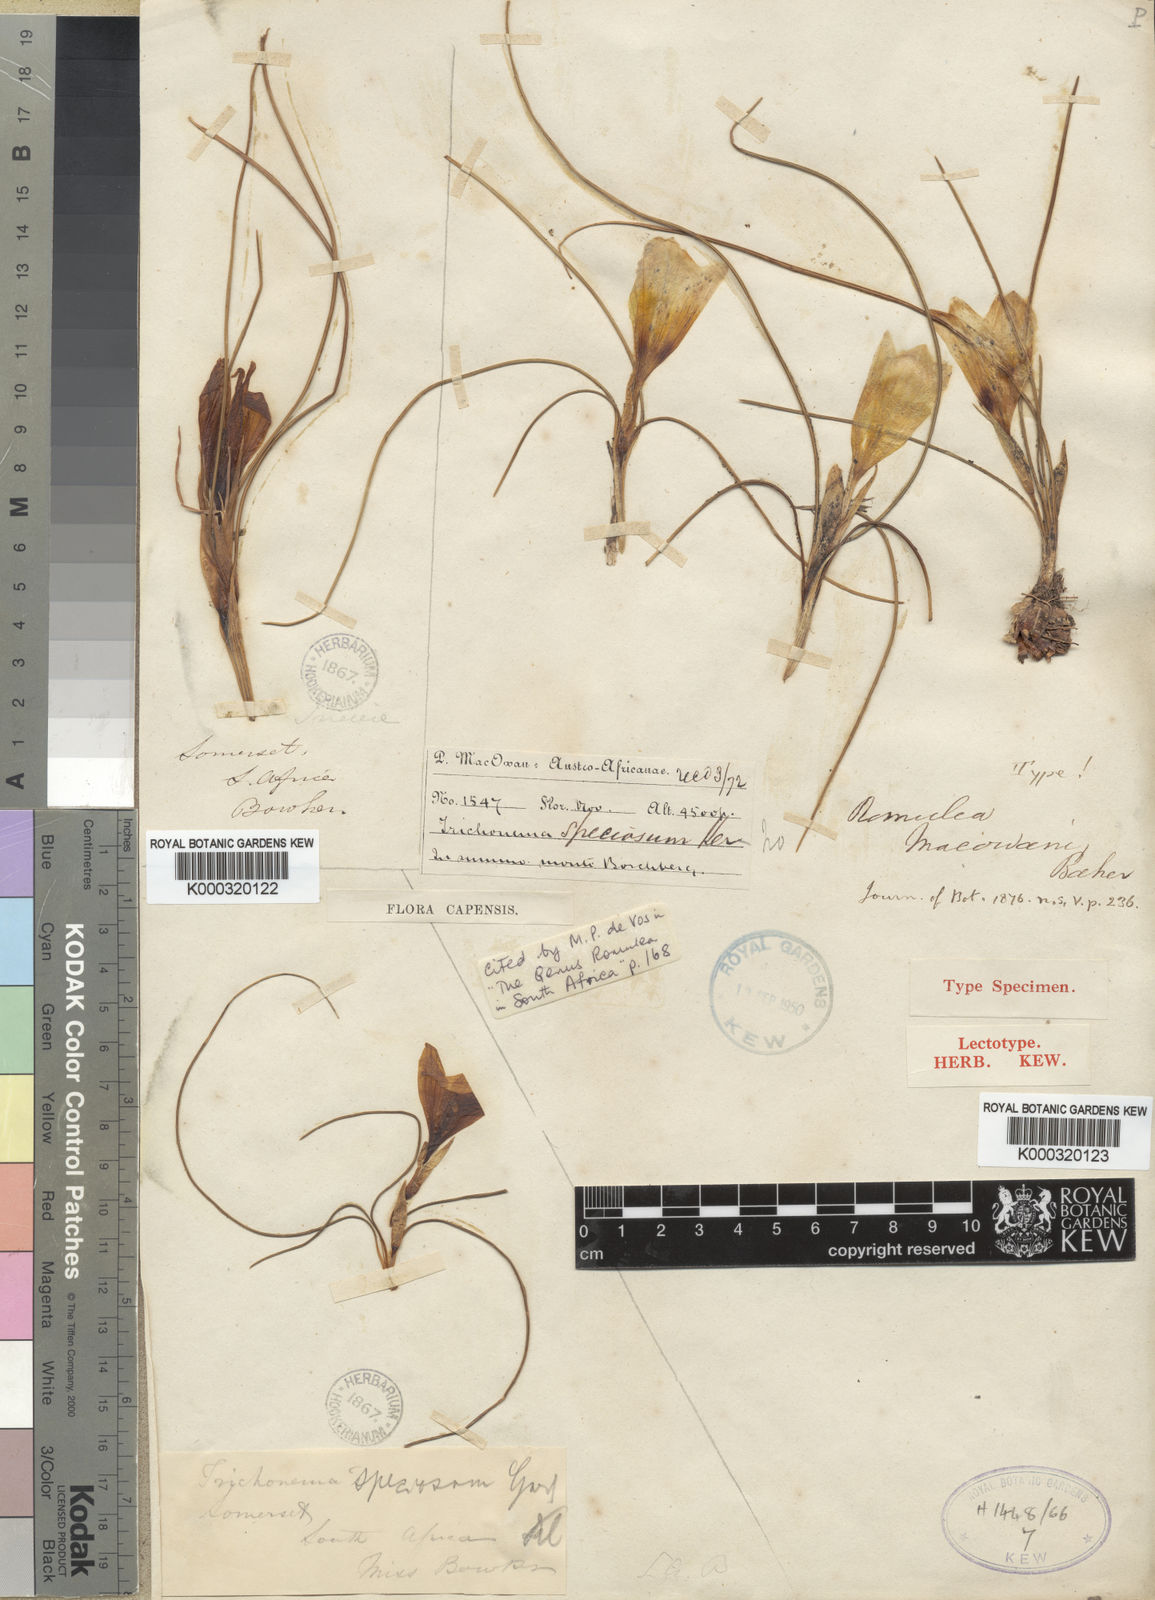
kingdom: Plantae
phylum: Tracheophyta
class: Liliopsida
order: Asparagales
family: Iridaceae
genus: Romulea
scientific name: Romulea macowanii
